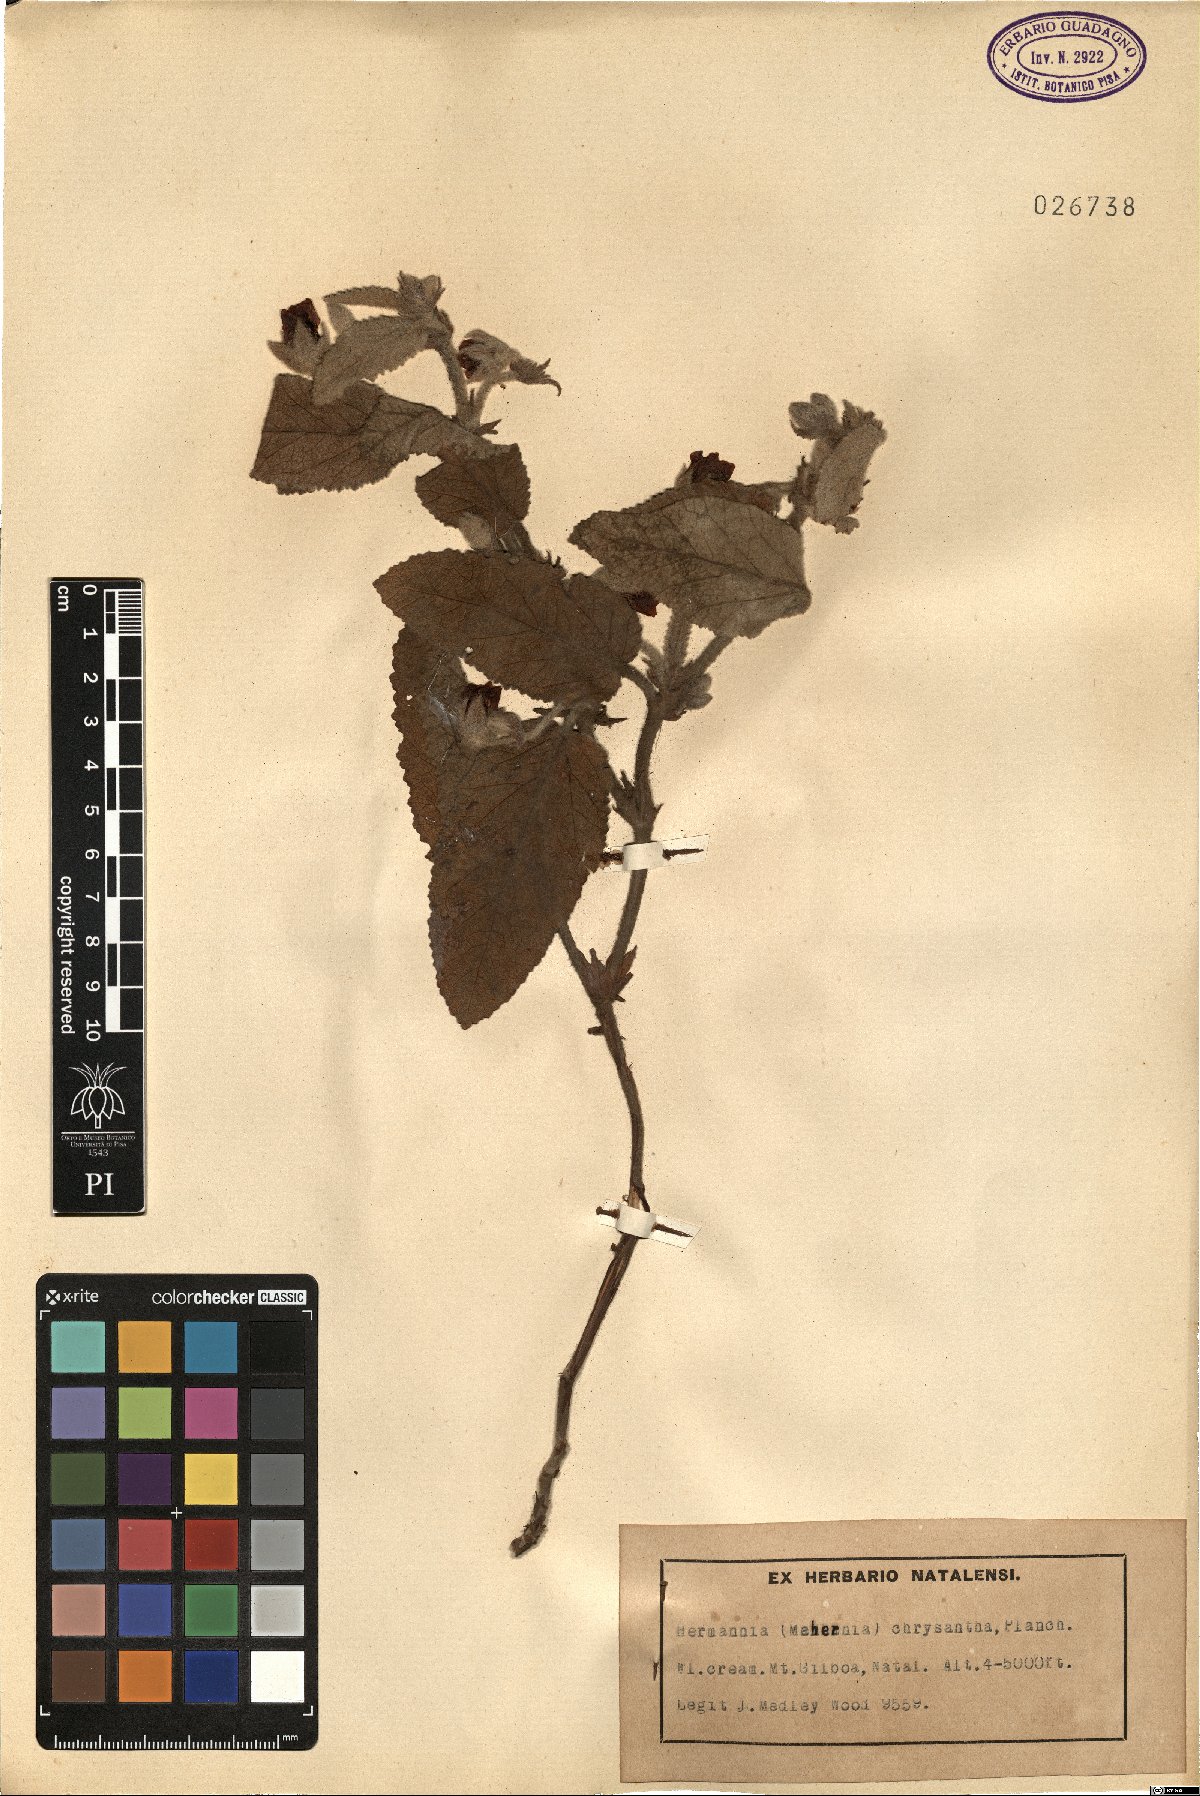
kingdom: Plantae
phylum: Tracheophyta
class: Magnoliopsida
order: Malvales
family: Malvaceae
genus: Hermannia
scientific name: Hermannia geniculata
